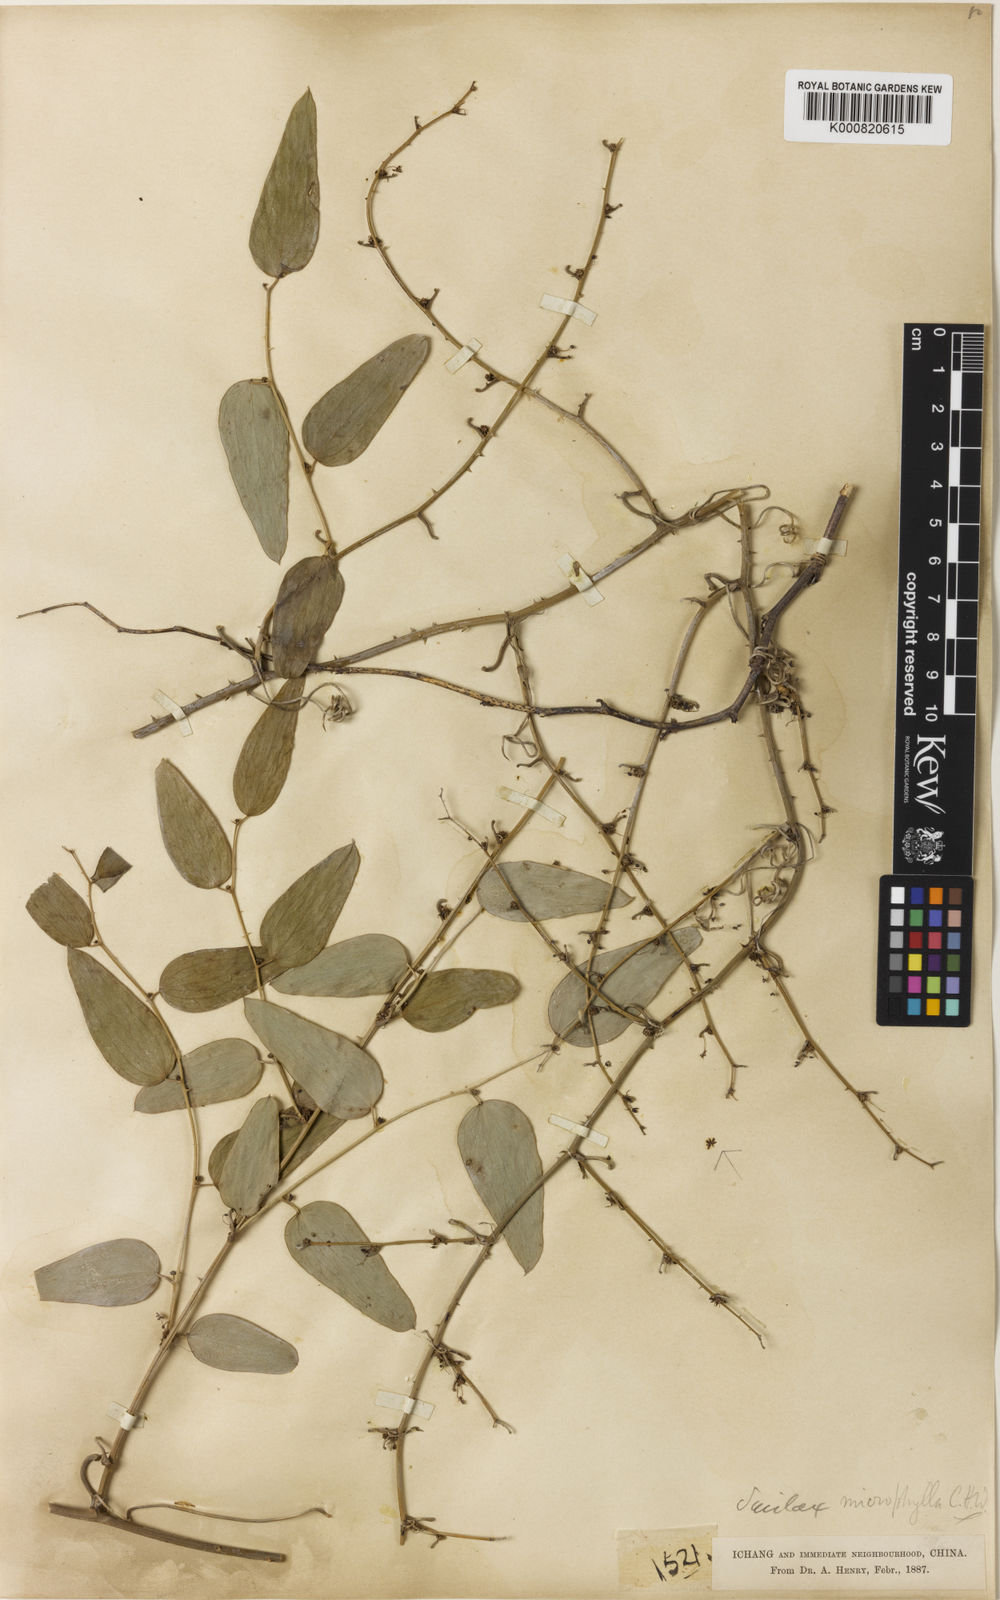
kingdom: Plantae
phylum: Tracheophyta
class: Liliopsida
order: Liliales
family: Smilacaceae
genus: Smilax
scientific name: Smilax microphylla
